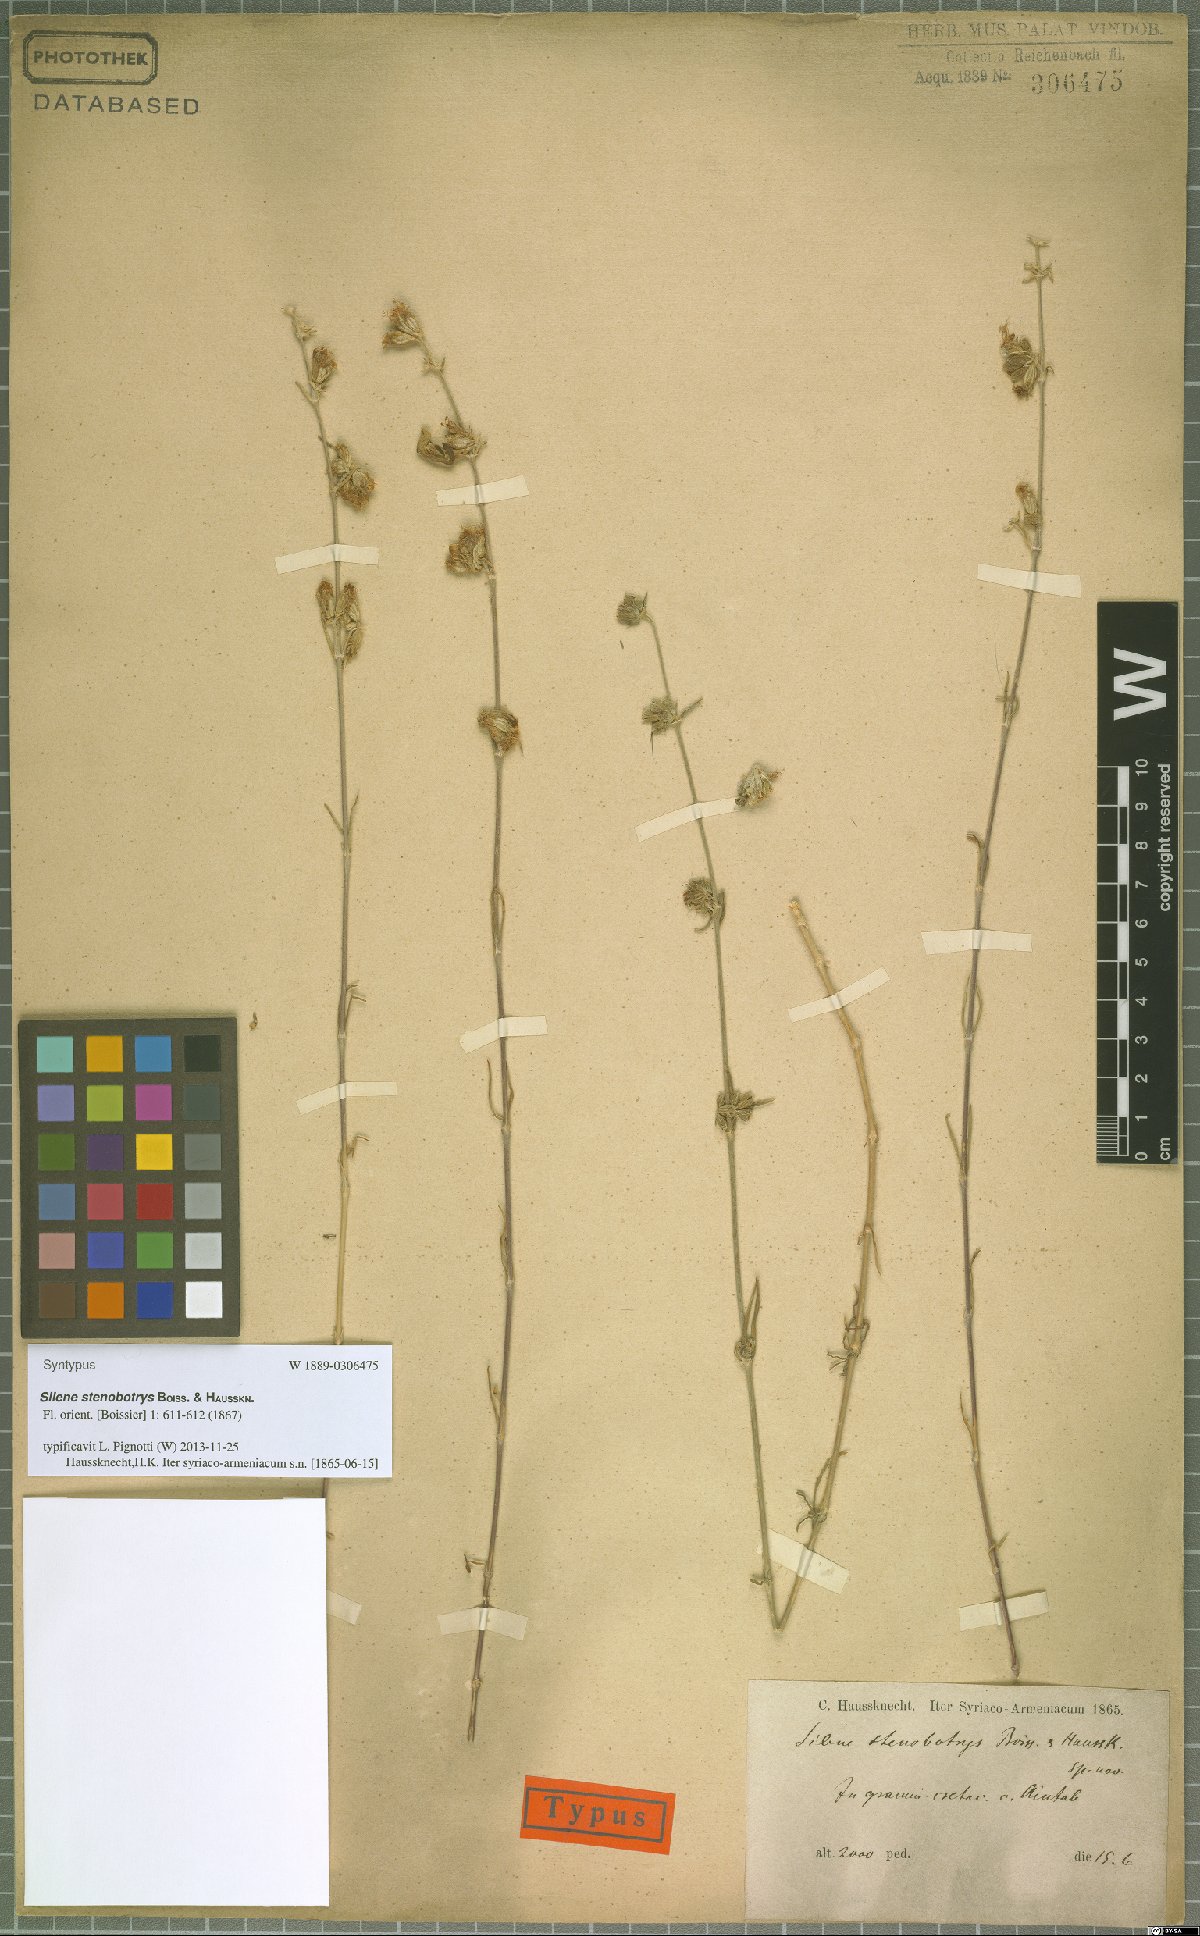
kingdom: Plantae
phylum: Tracheophyta
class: Magnoliopsida
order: Caryophyllales
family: Caryophyllaceae
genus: Silene
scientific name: Silene stenobotrys
